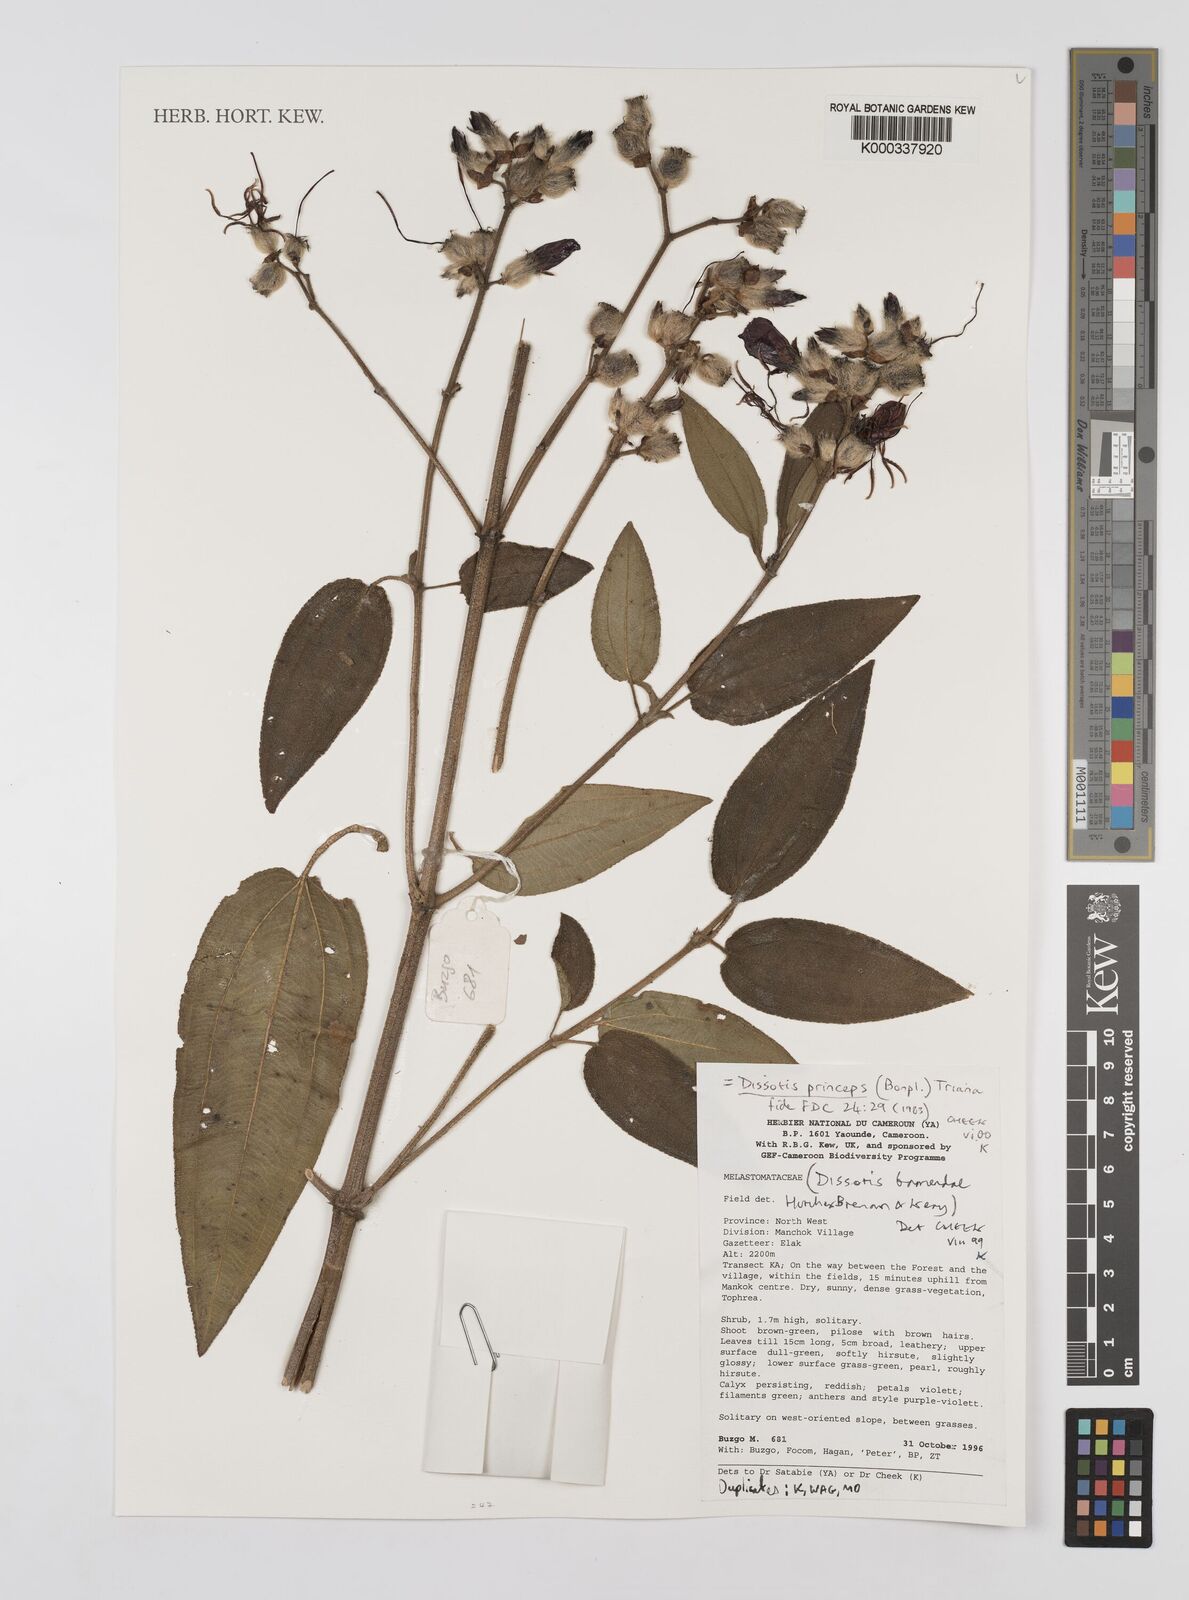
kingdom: Plantae
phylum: Tracheophyta
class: Magnoliopsida
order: Myrtales
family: Melastomataceae
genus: Rosettea
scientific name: Rosettea princeps
